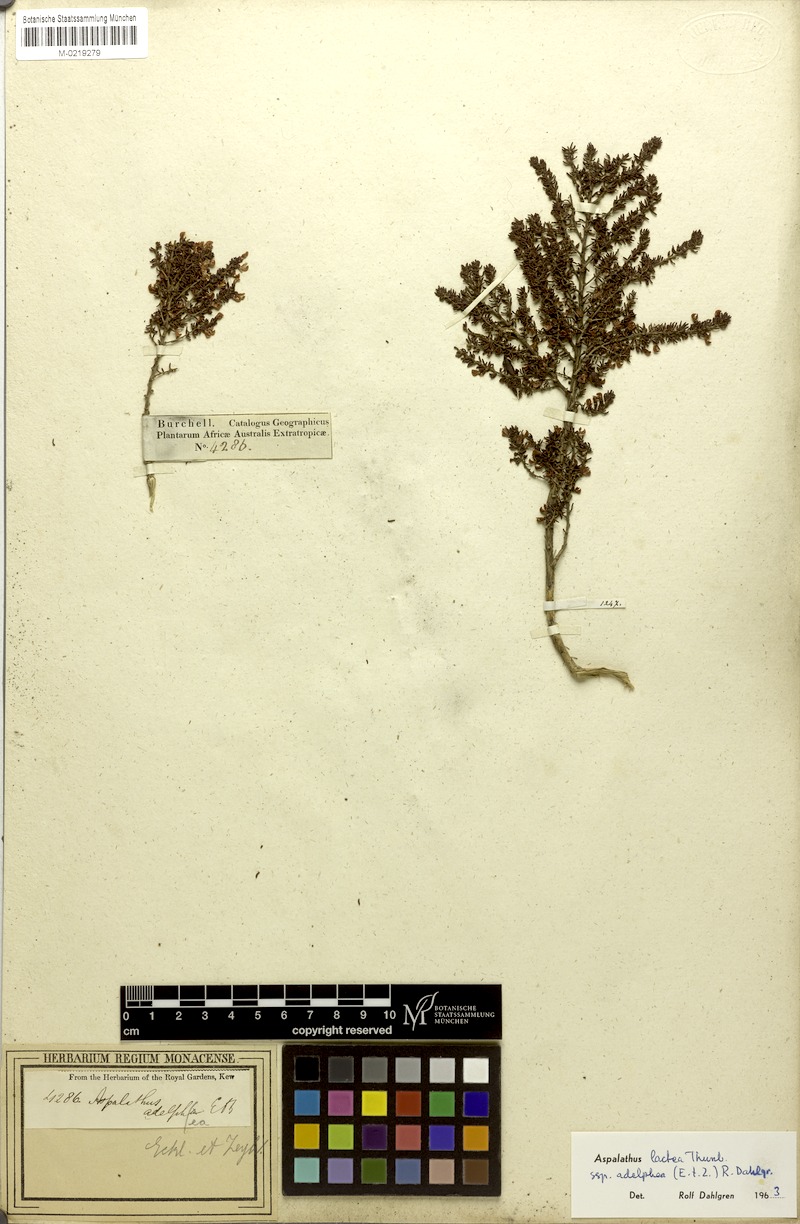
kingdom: Plantae
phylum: Tracheophyta
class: Magnoliopsida
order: Fabales
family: Fabaceae
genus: Aspalathus
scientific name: Aspalathus lactea
